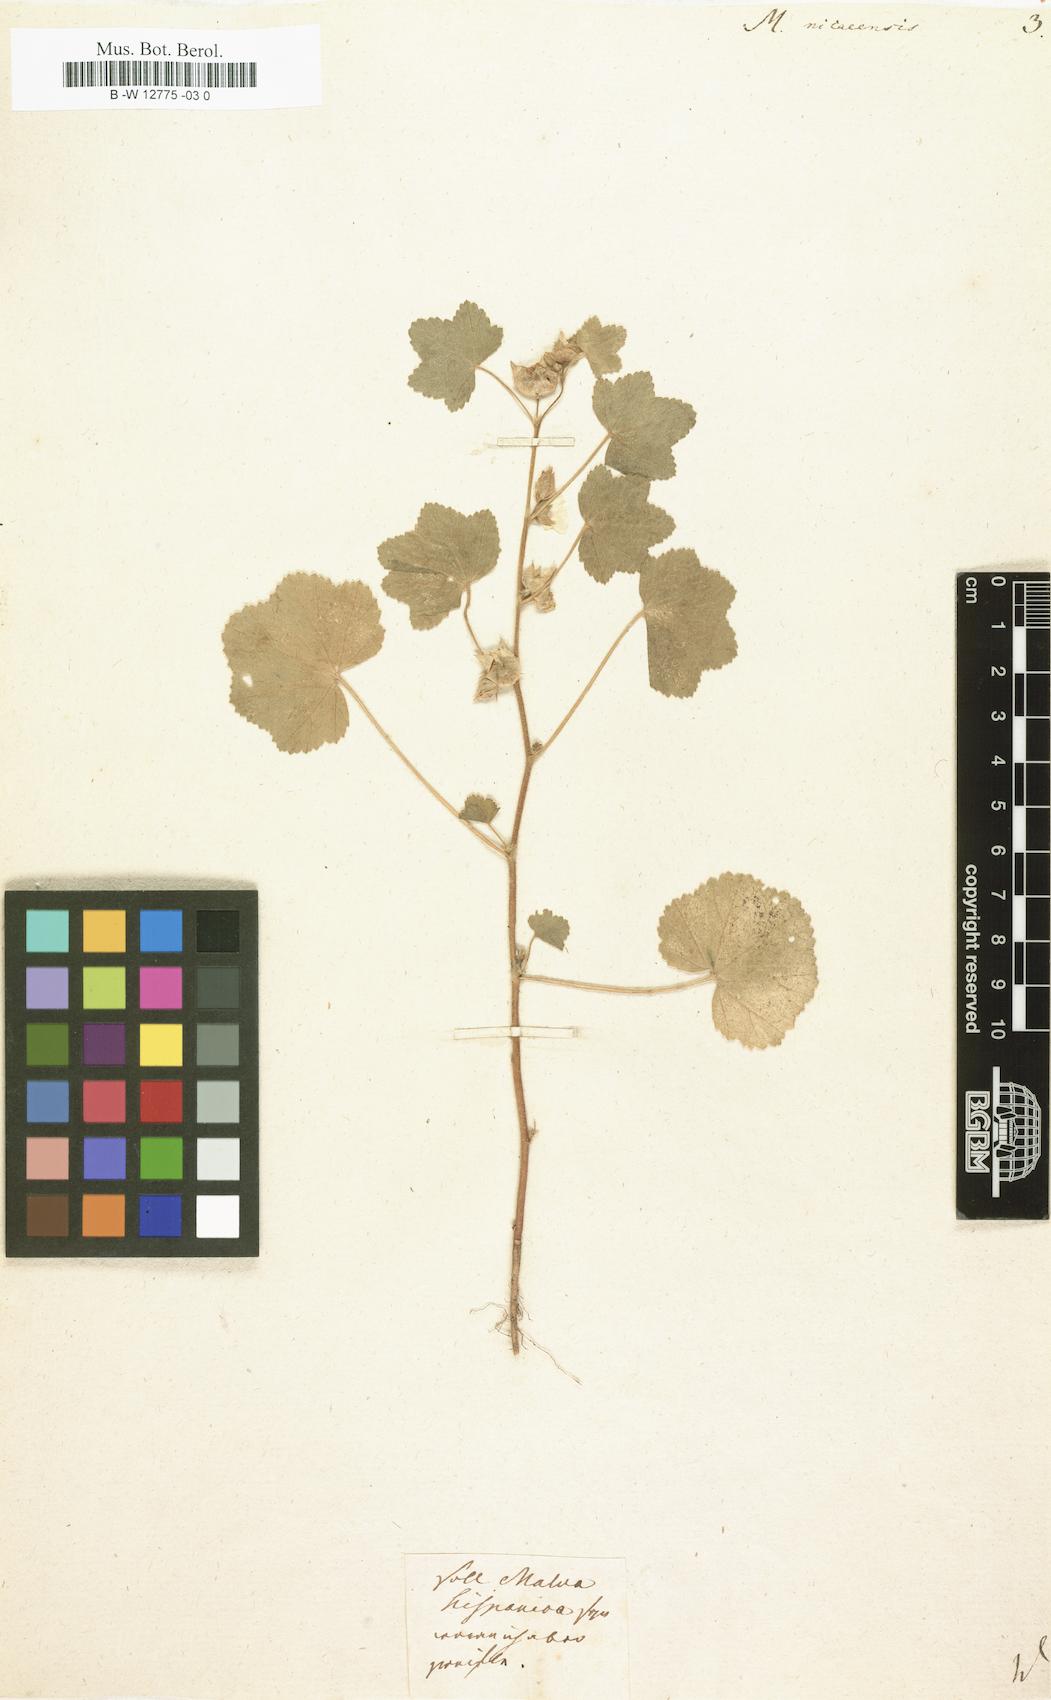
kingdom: Plantae
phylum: Tracheophyta
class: Magnoliopsida
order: Malvales
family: Malvaceae
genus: Malva
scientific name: Malva nicaeensis
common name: French mallow
